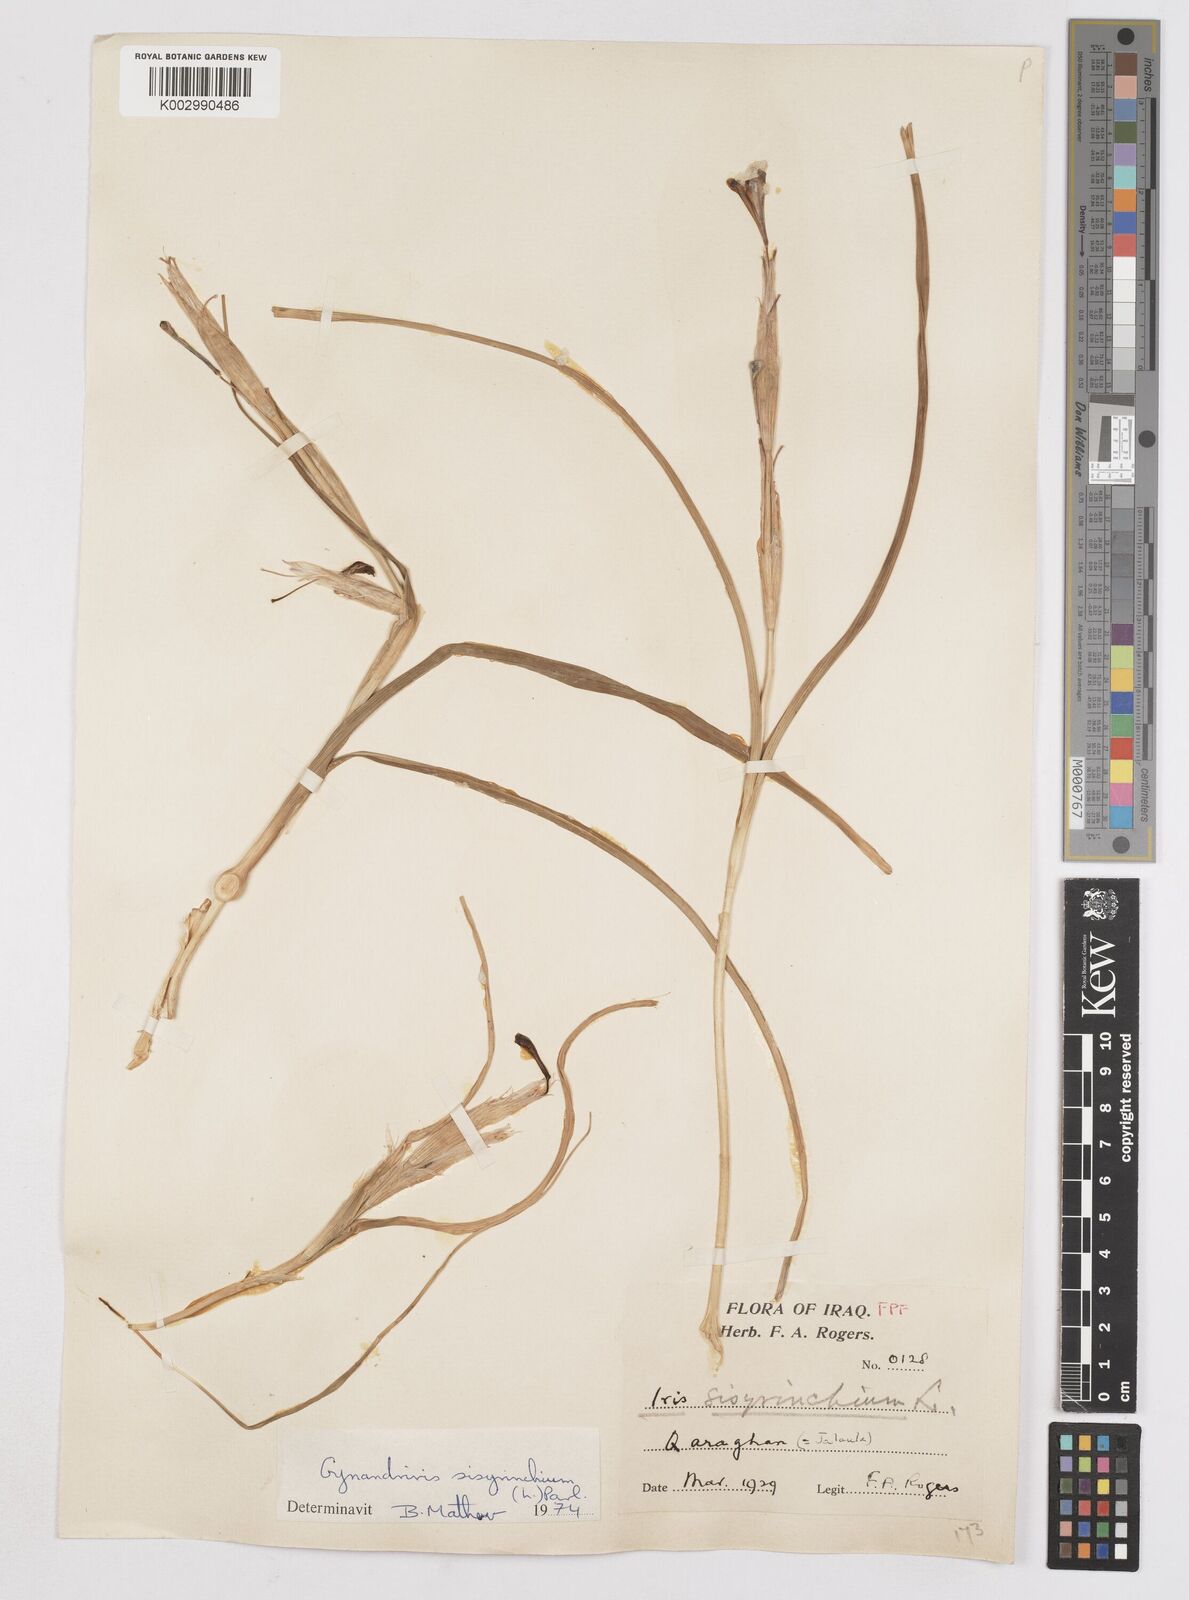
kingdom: Plantae
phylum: Tracheophyta
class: Liliopsida
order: Asparagales
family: Iridaceae
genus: Moraea
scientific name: Moraea sisyrinchium
